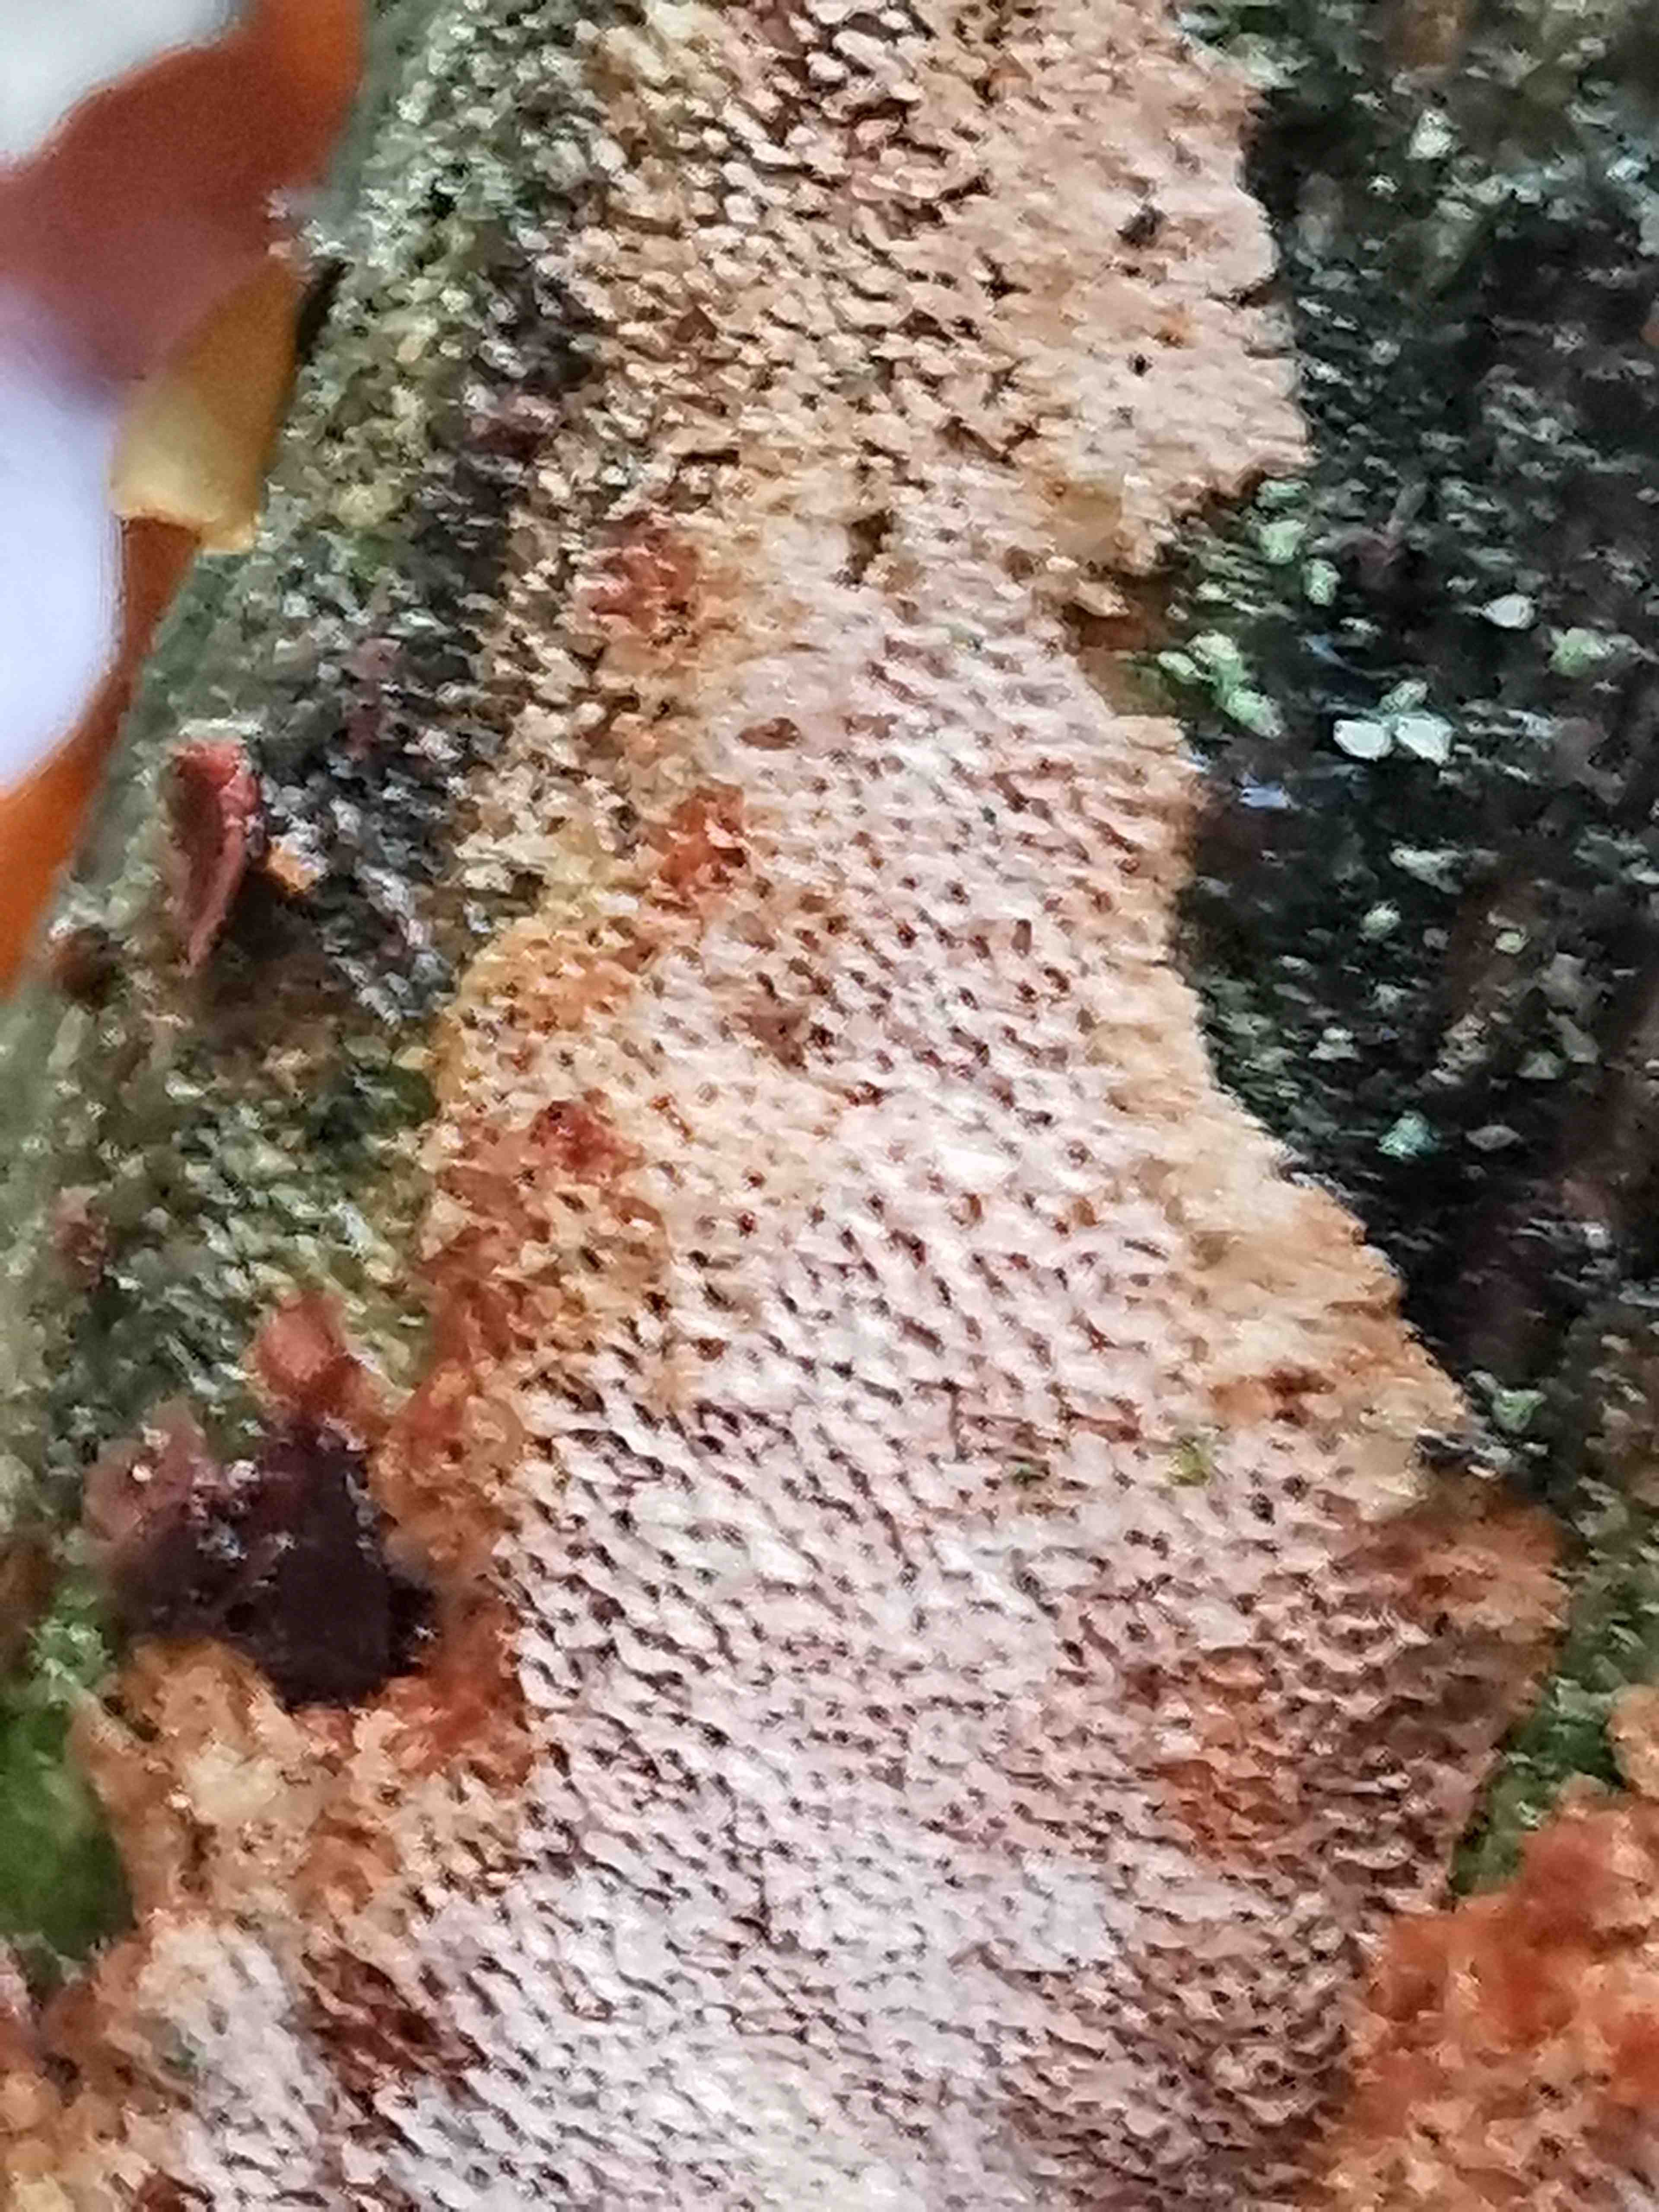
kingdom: Fungi
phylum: Basidiomycota
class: Agaricomycetes
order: Hymenochaetales
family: Hymenochaetaceae
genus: Fuscoporia
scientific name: Fuscoporia ferrea
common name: skorpe-ildporesvamp
